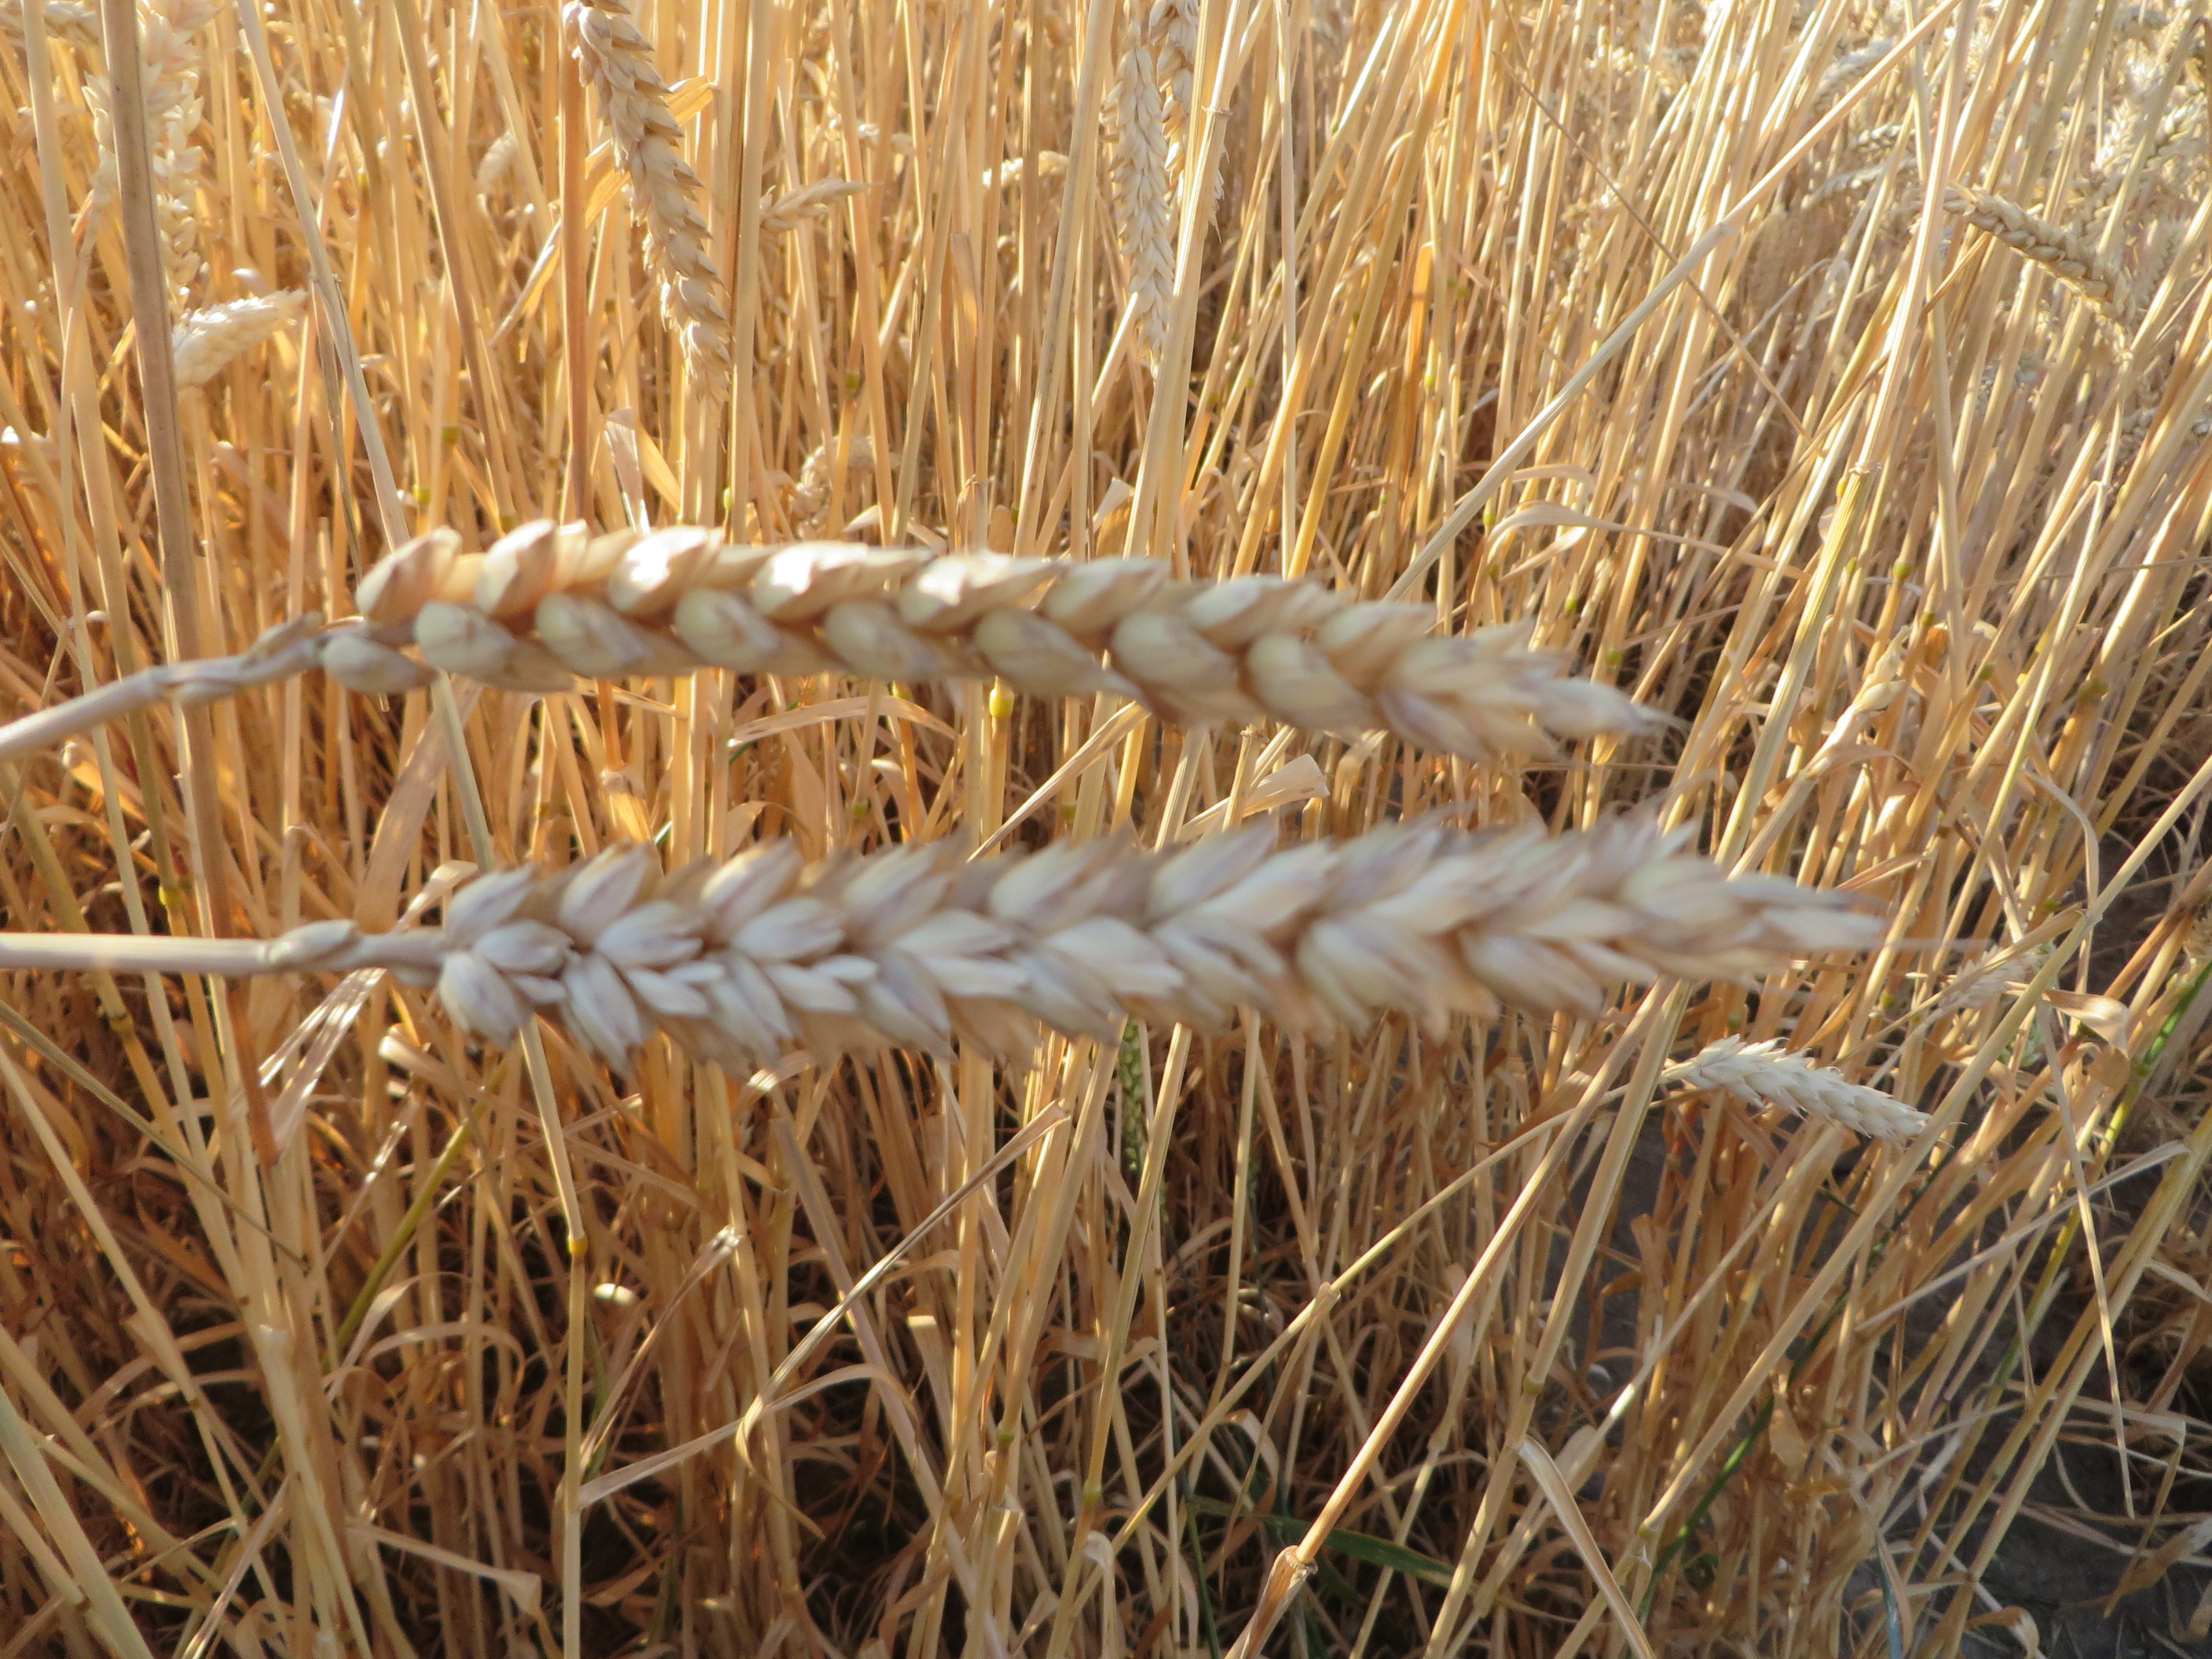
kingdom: Plantae
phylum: Tracheophyta
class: Liliopsida
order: Poales
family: Poaceae
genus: Triticum
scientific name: Triticum aestivum
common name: Common wheat
